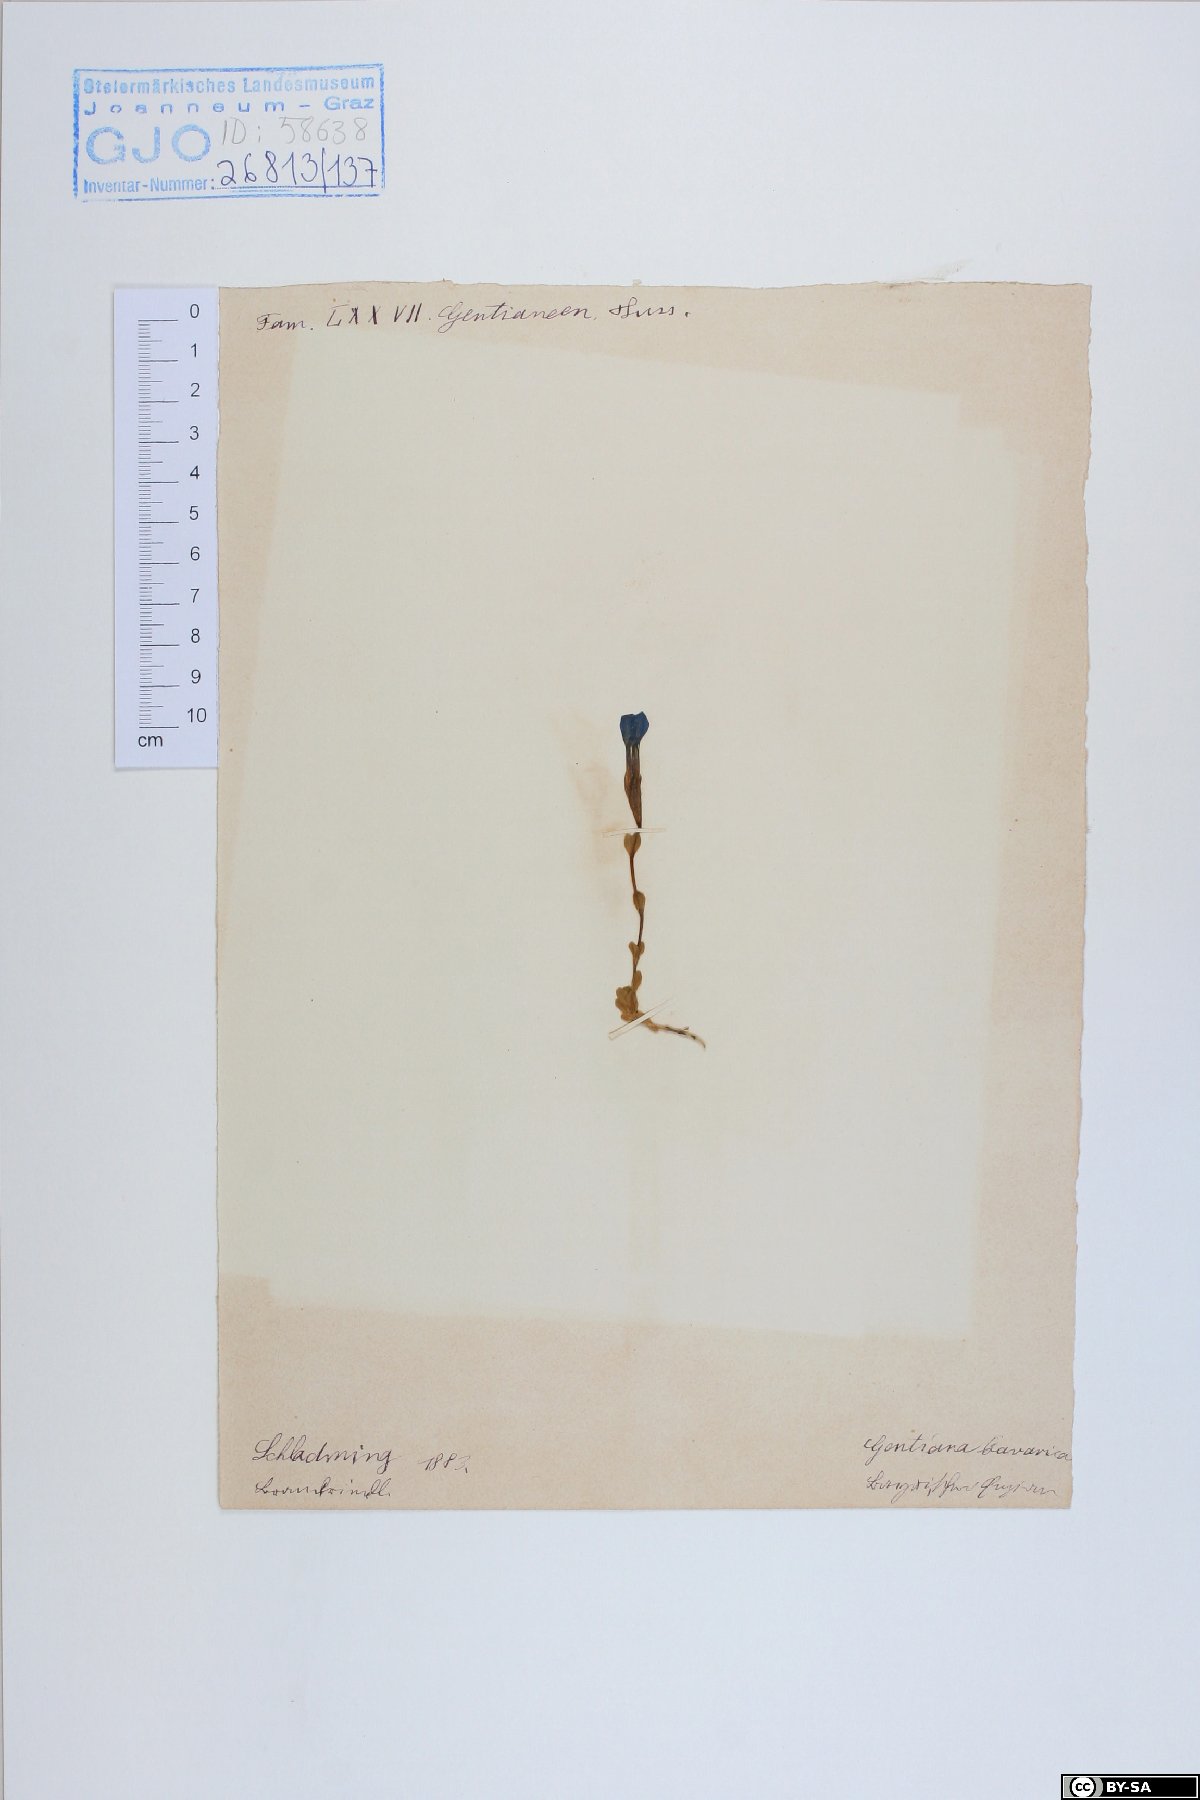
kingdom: Plantae
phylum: Tracheophyta
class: Magnoliopsida
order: Gentianales
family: Gentianaceae
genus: Gentiana
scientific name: Gentiana bavarica
